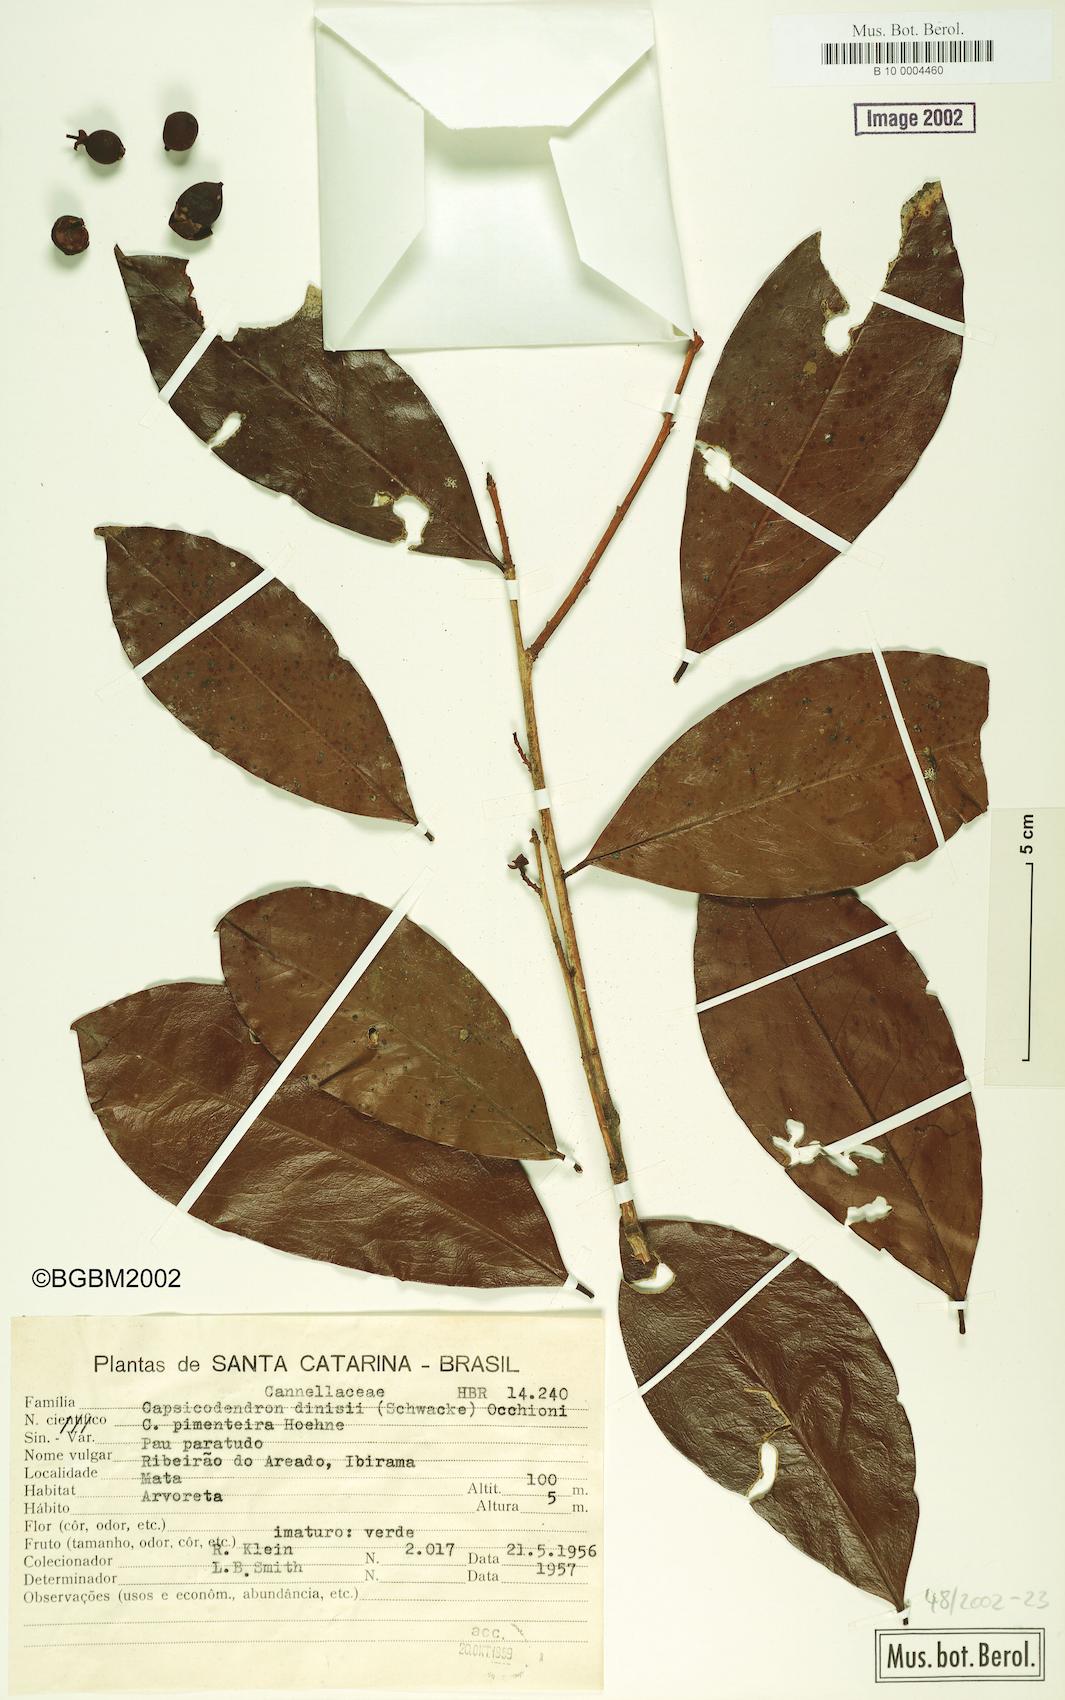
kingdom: Plantae
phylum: Tracheophyta
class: Magnoliopsida
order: Canellales
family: Canellaceae
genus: Cinnamodendron
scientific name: Cinnamodendron dinisii
